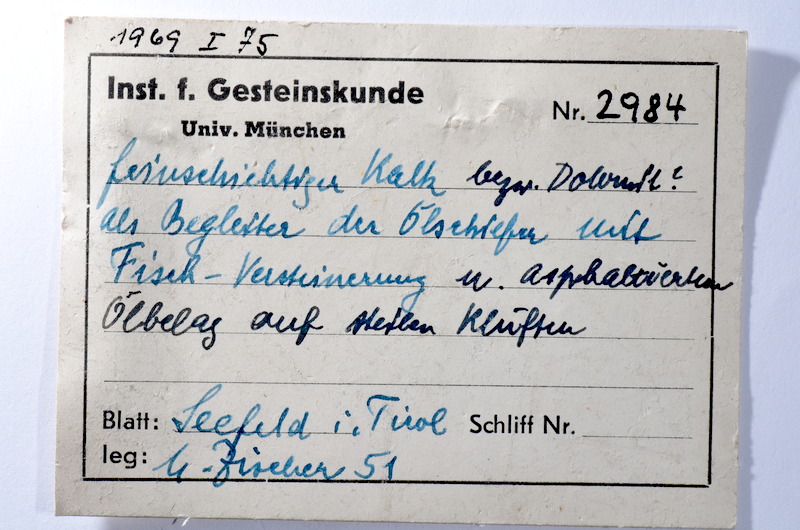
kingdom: Animalia
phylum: Chordata
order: Lepisosteiformes
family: Lepidotidae
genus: Lepidotes
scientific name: Lepidotes
